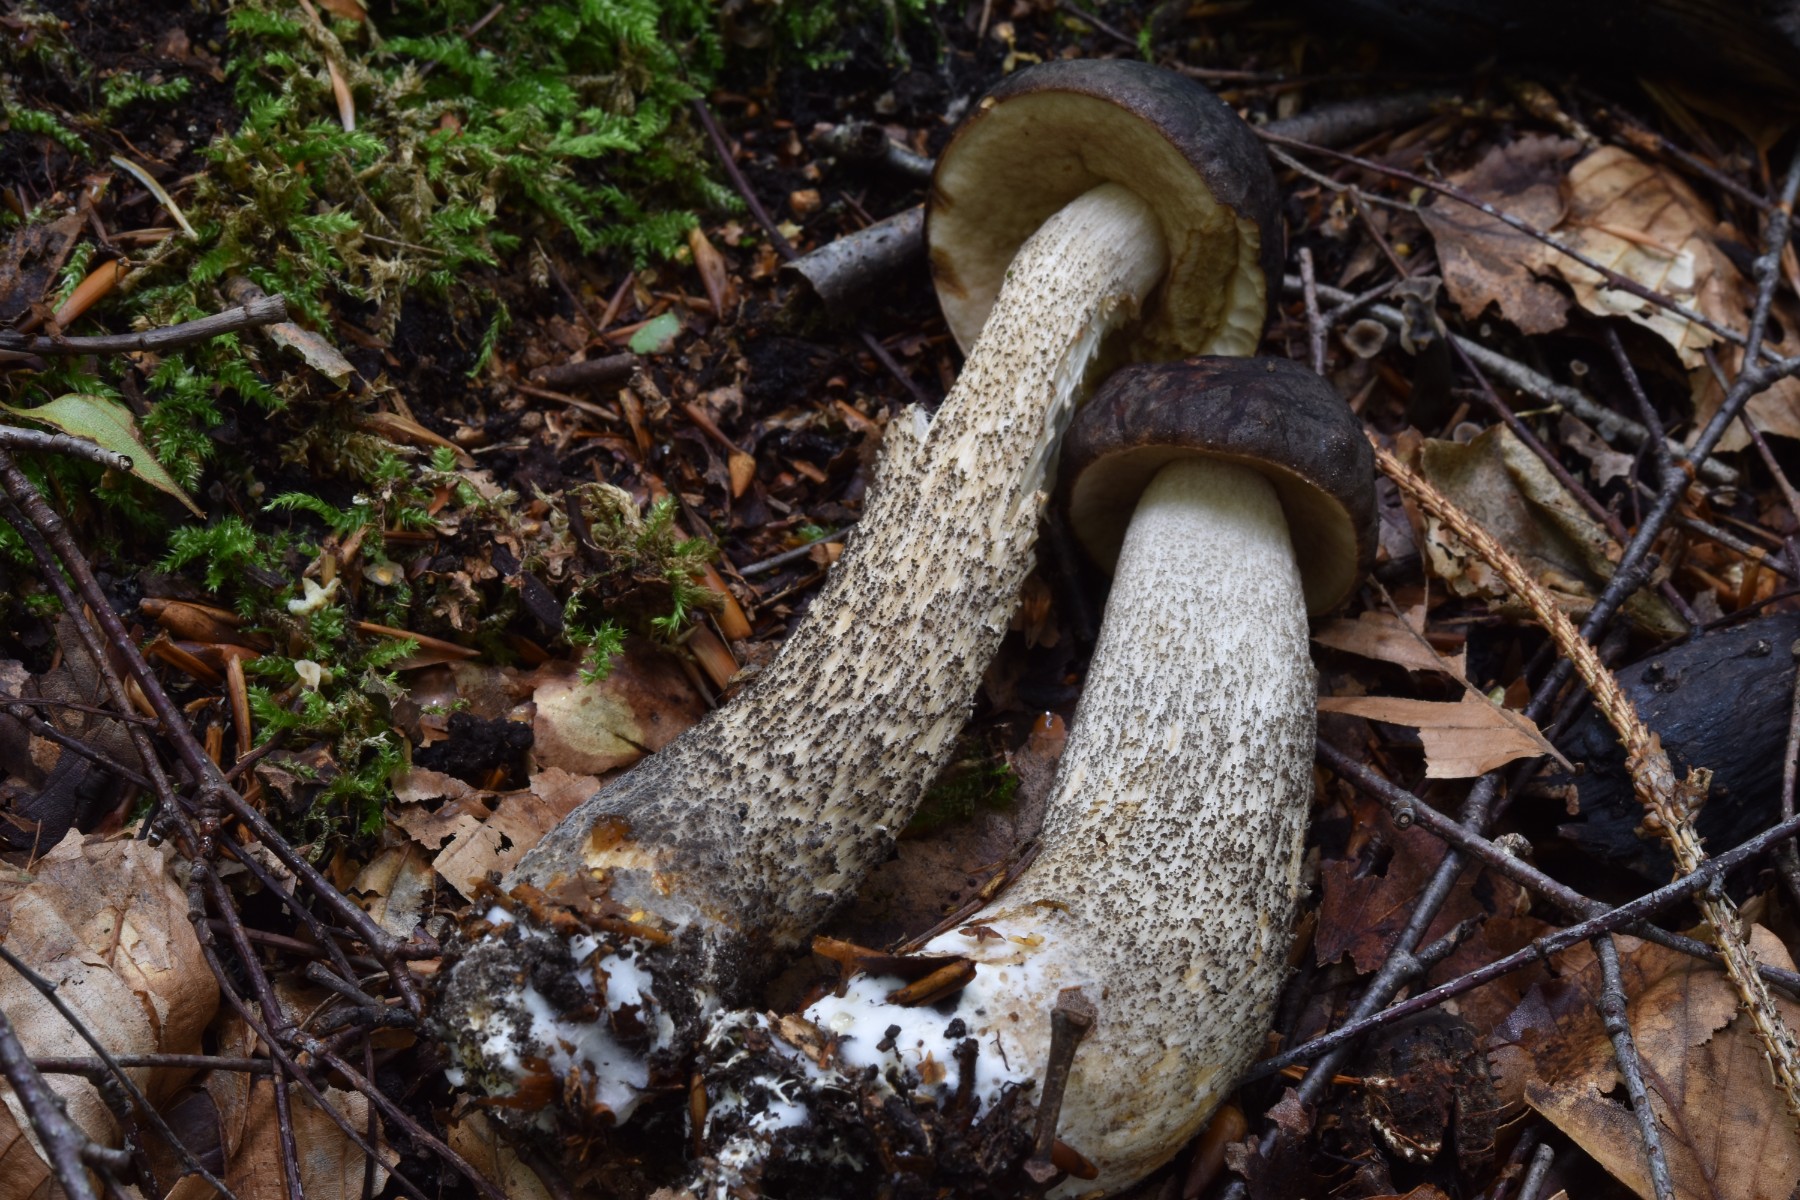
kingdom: Fungi
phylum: Basidiomycota
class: Agaricomycetes
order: Boletales
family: Boletaceae
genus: Leccinum
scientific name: Leccinum scabrum
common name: brun skælrørhat
